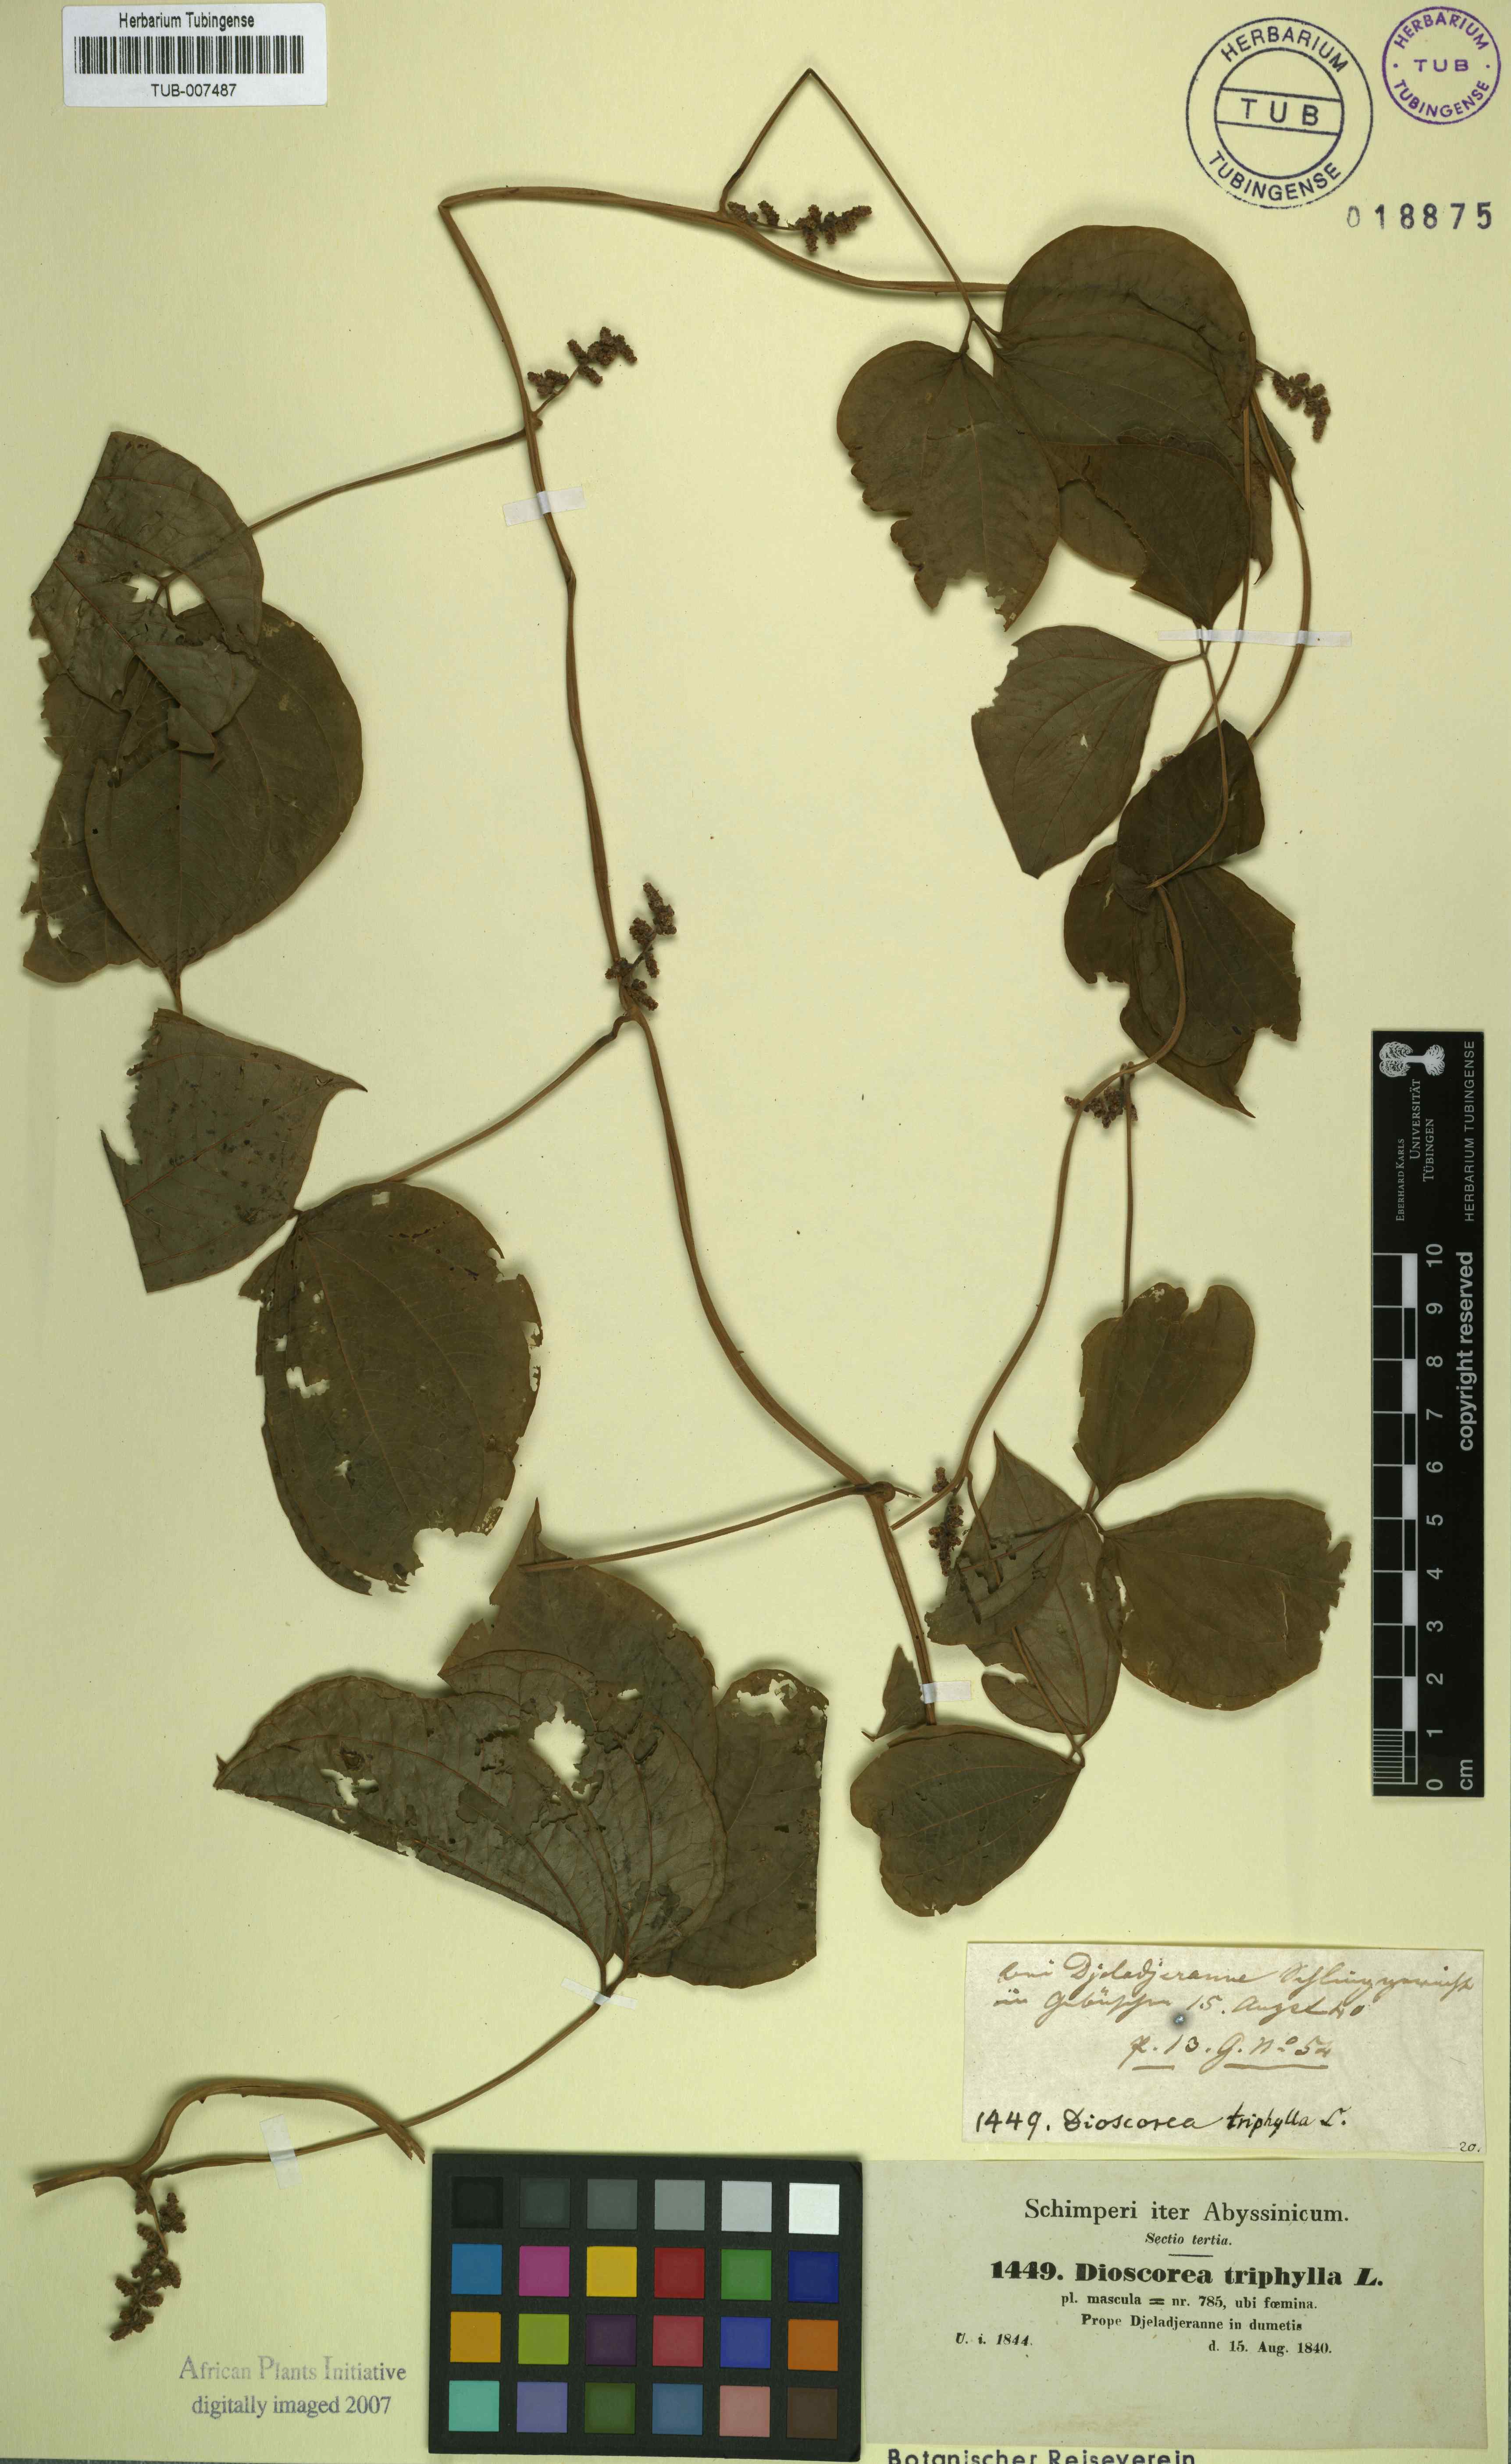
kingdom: Plantae
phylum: Tracheophyta
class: Liliopsida
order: Dioscoreales
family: Dioscoreaceae
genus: Dioscorea
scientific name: Dioscorea pentaphylla
